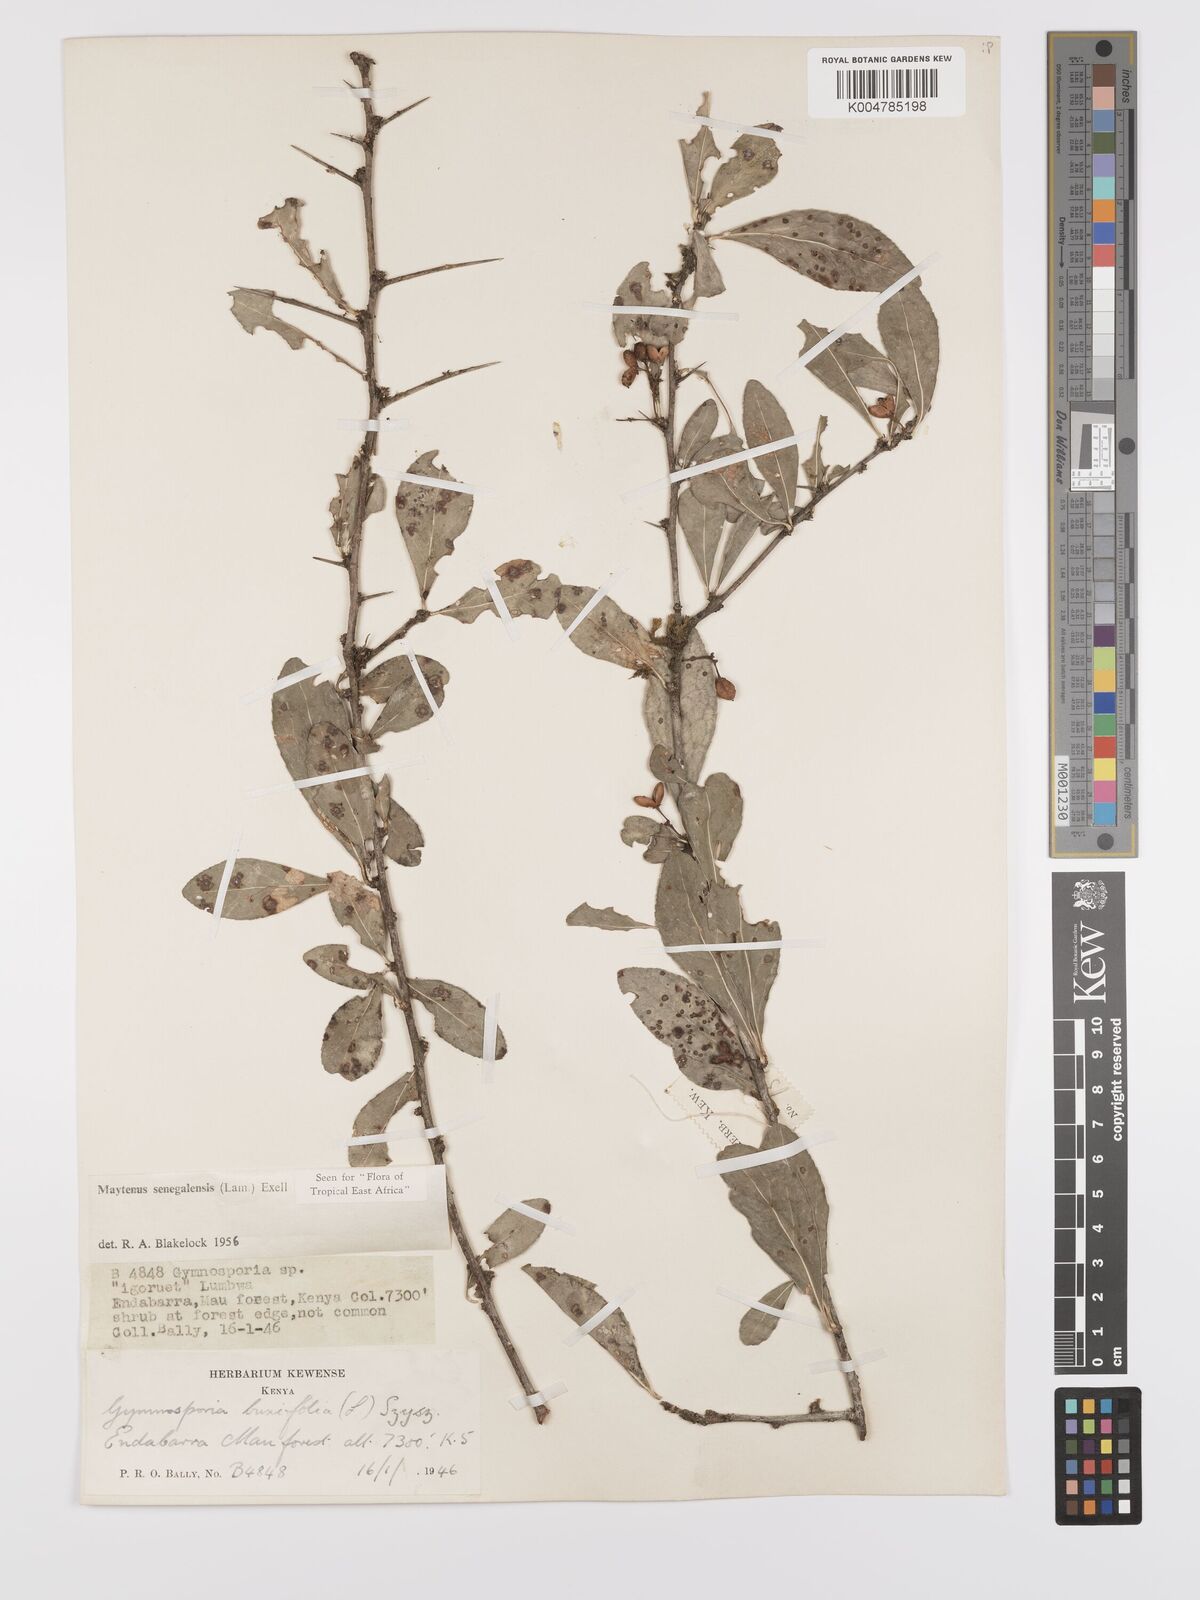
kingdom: Plantae
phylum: Tracheophyta
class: Magnoliopsida
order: Celastrales
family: Celastraceae
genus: Gymnosporia
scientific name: Gymnosporia heterophylla
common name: Angle-stem spikethorn
